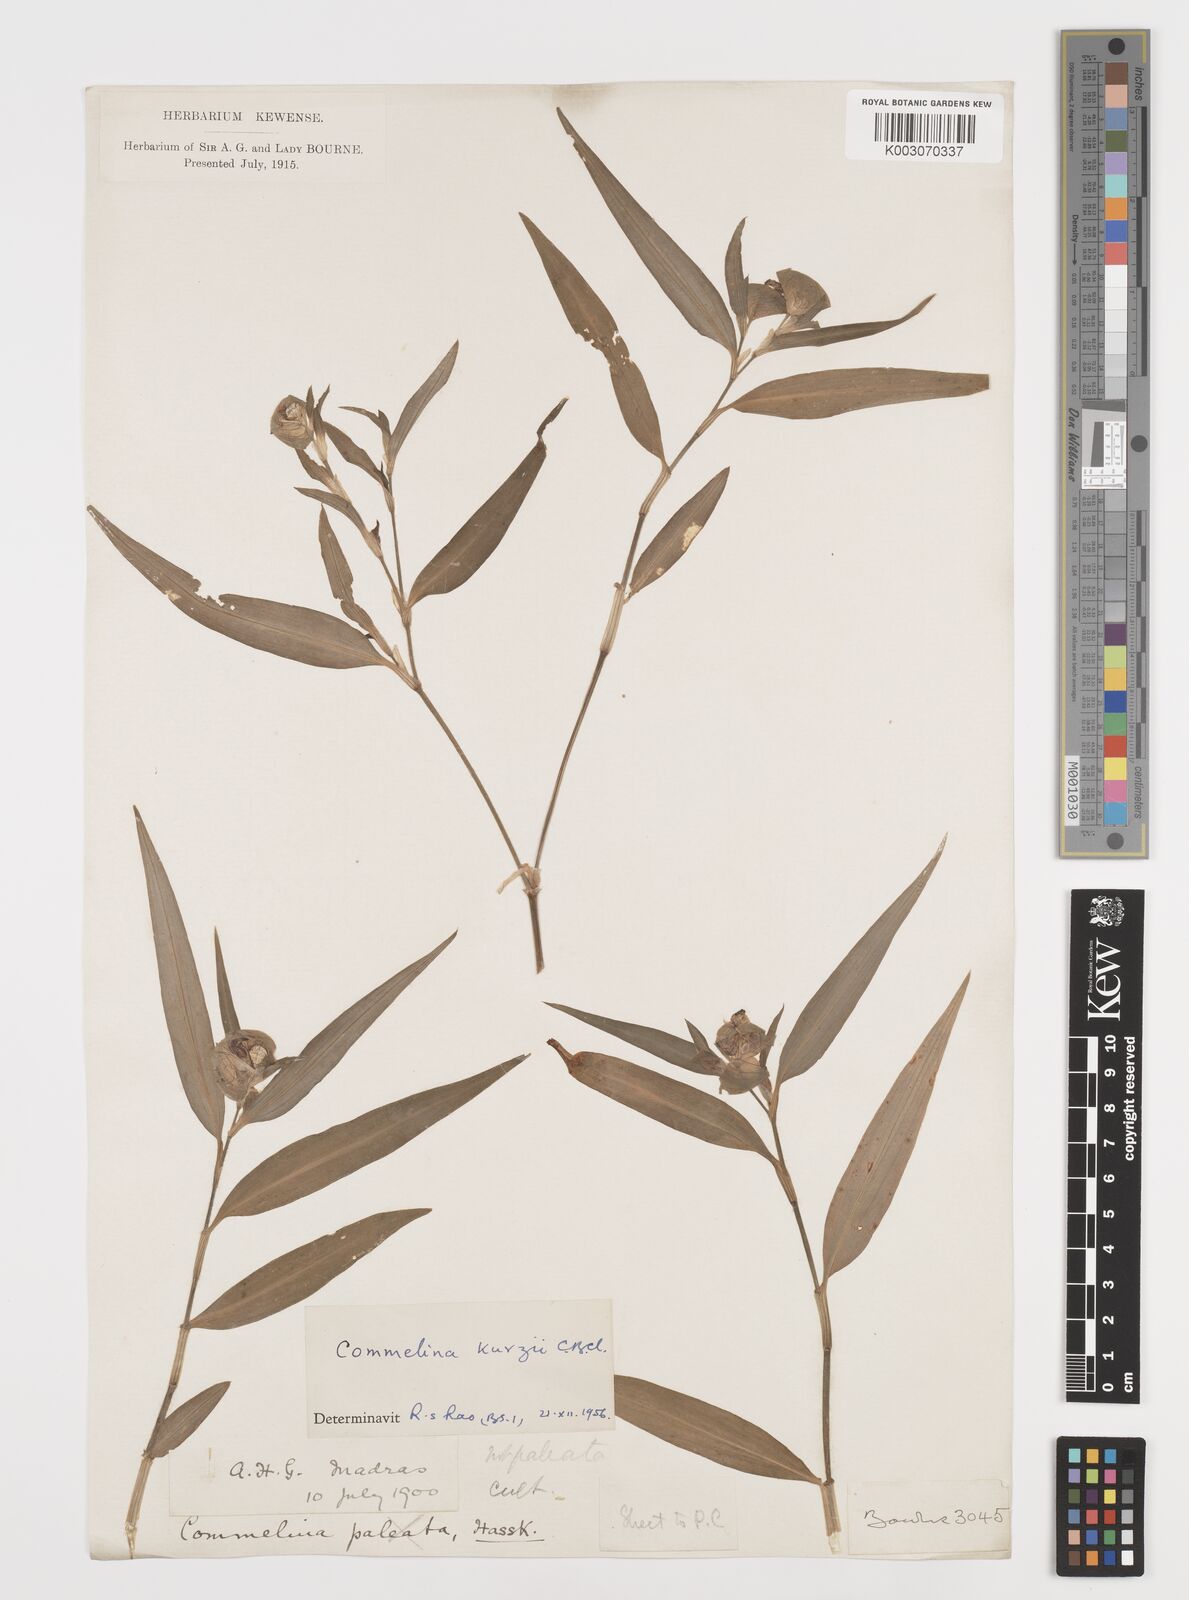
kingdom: Plantae
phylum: Tracheophyta
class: Liliopsida
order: Commelinales
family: Commelinaceae
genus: Commelina
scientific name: Commelina undulata
